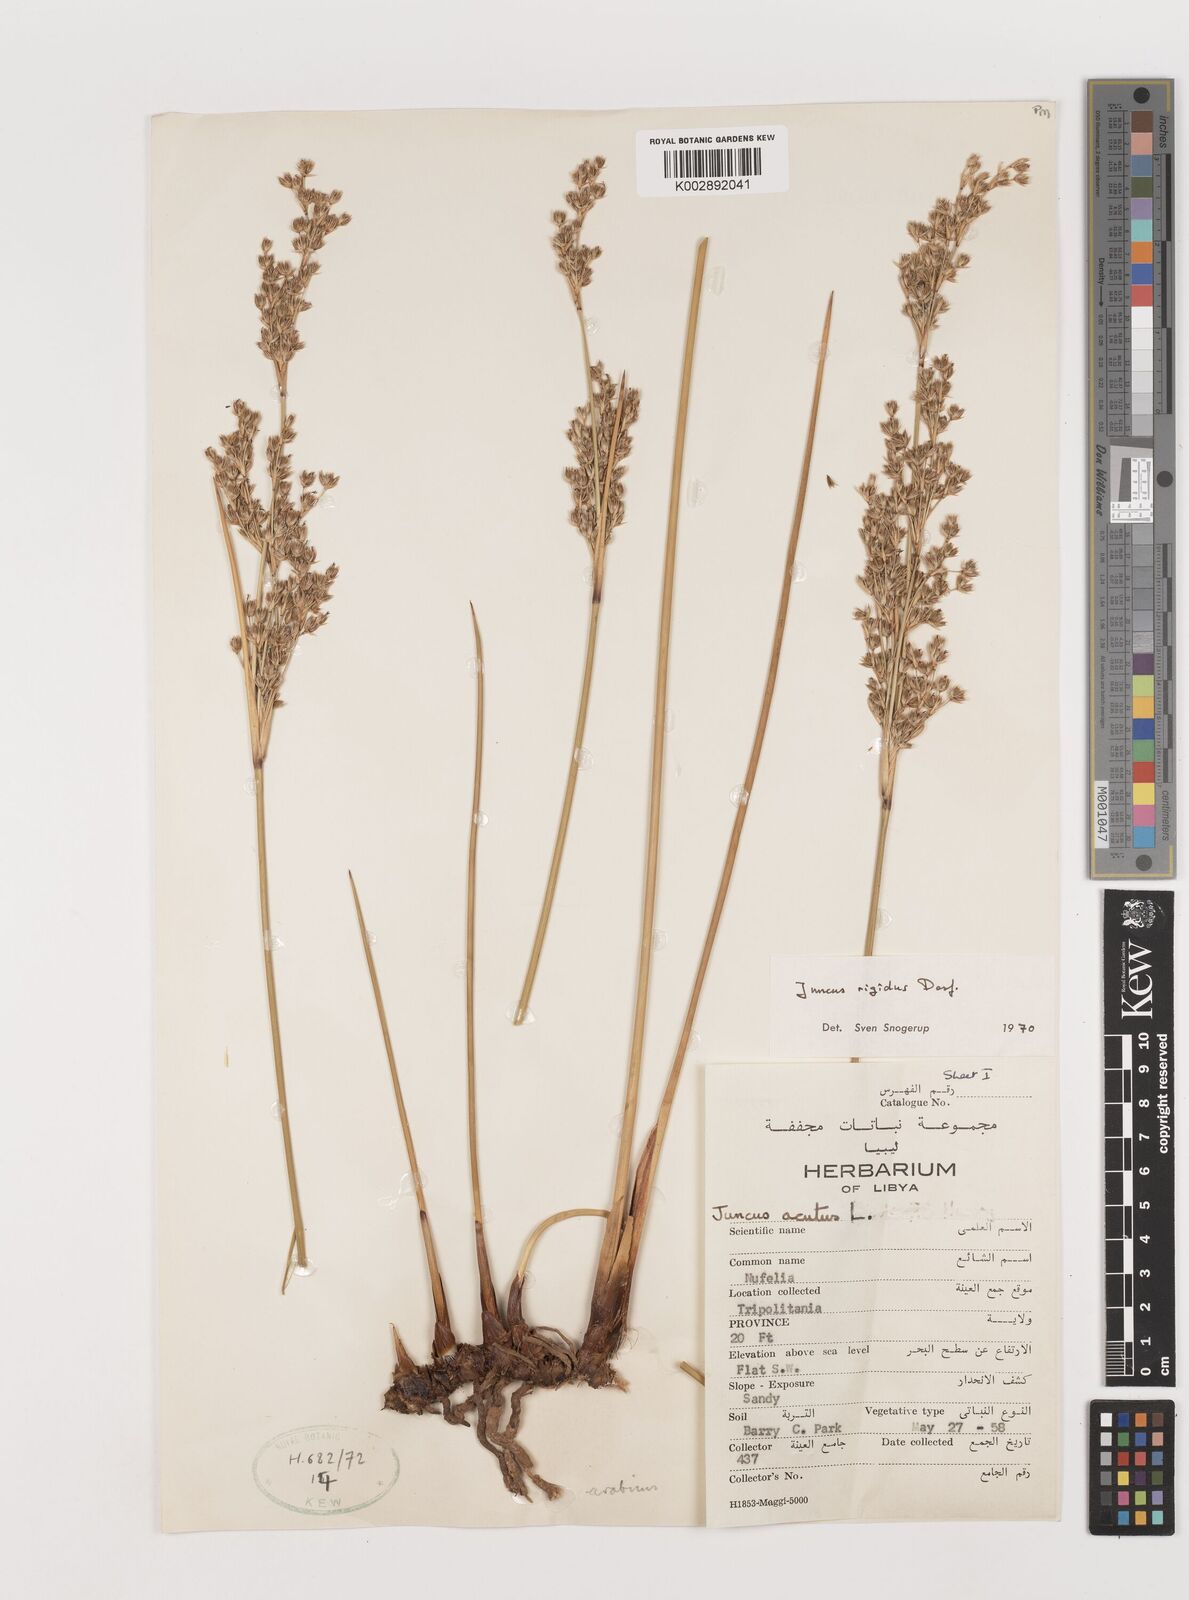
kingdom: Plantae
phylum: Tracheophyta
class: Liliopsida
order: Poales
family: Juncaceae
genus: Juncus
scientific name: Juncus rigidus
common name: Hard sea rush
